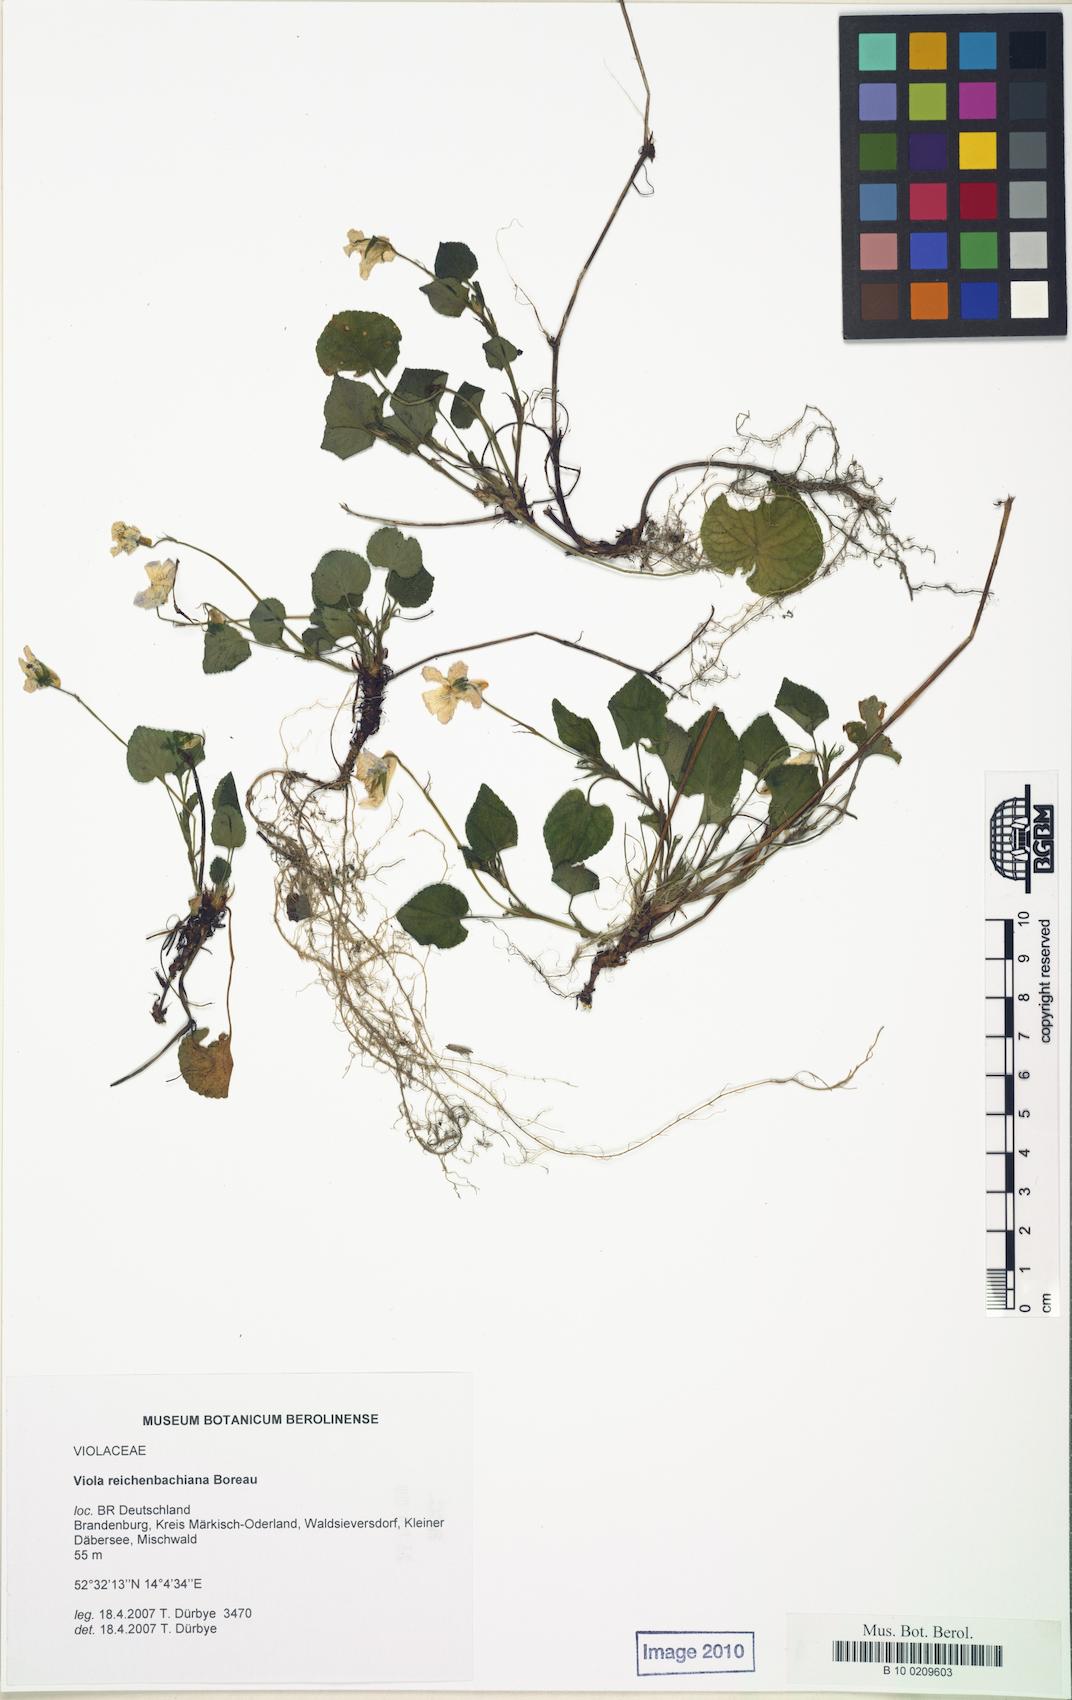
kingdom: Plantae
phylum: Tracheophyta
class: Magnoliopsida
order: Malpighiales
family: Violaceae
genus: Viola
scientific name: Viola reichenbachiana
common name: Early dog-violet
